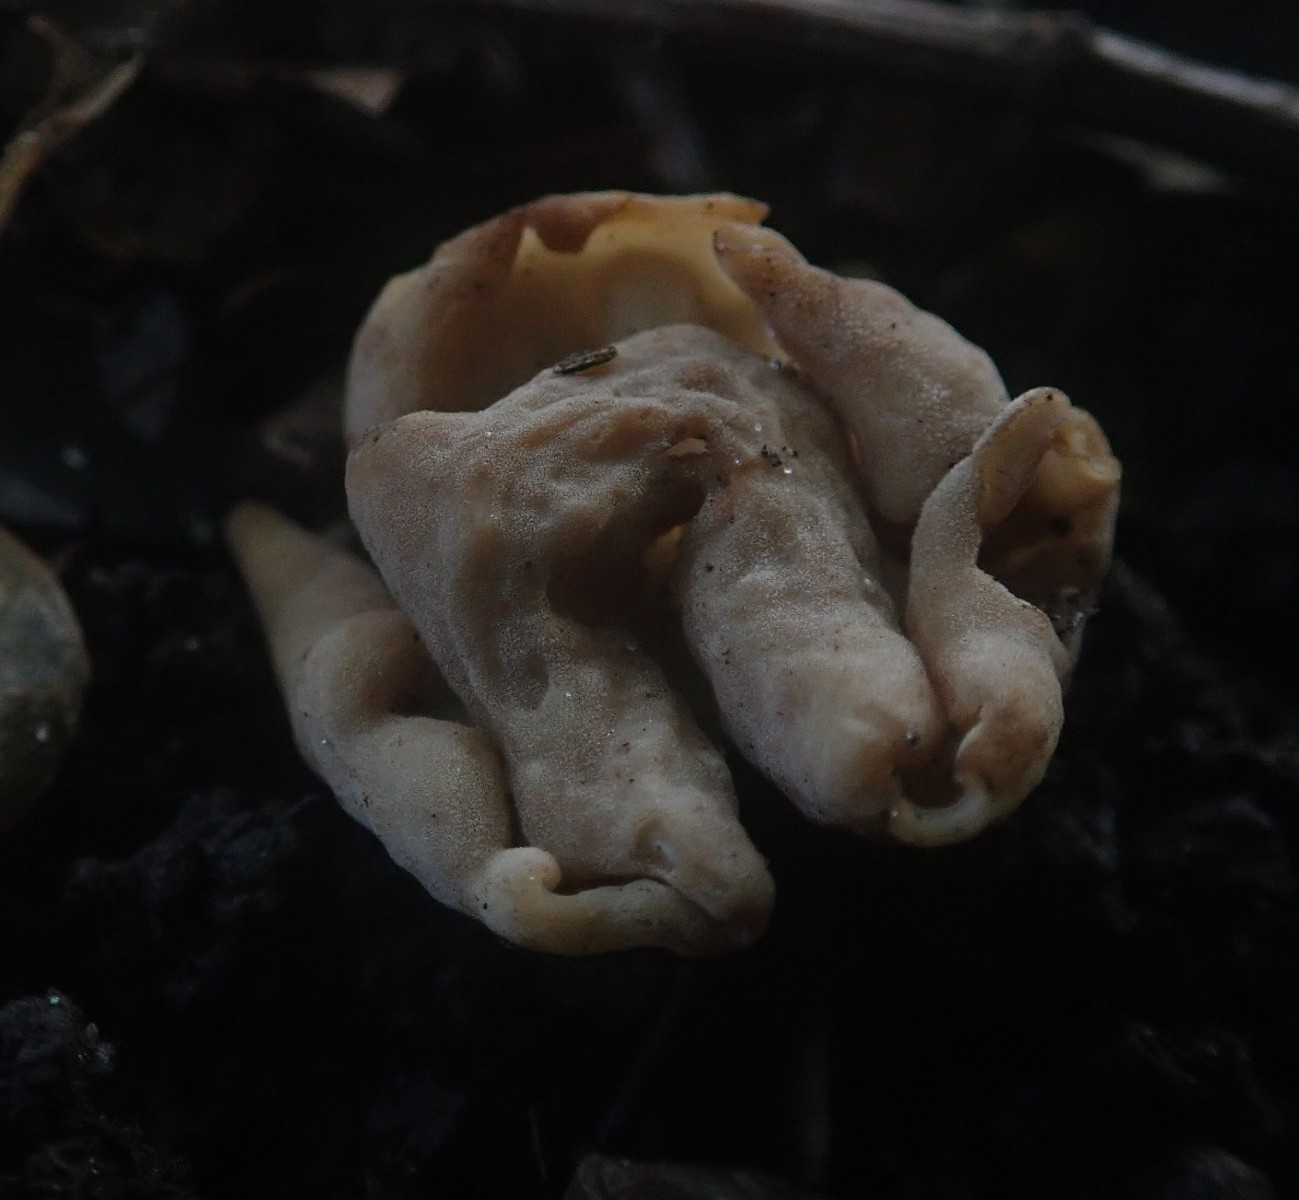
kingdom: Fungi
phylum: Ascomycota
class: Pezizomycetes
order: Pezizales
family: Helvellaceae
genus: Helvella
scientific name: Helvella crispa
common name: kruset foldhat
